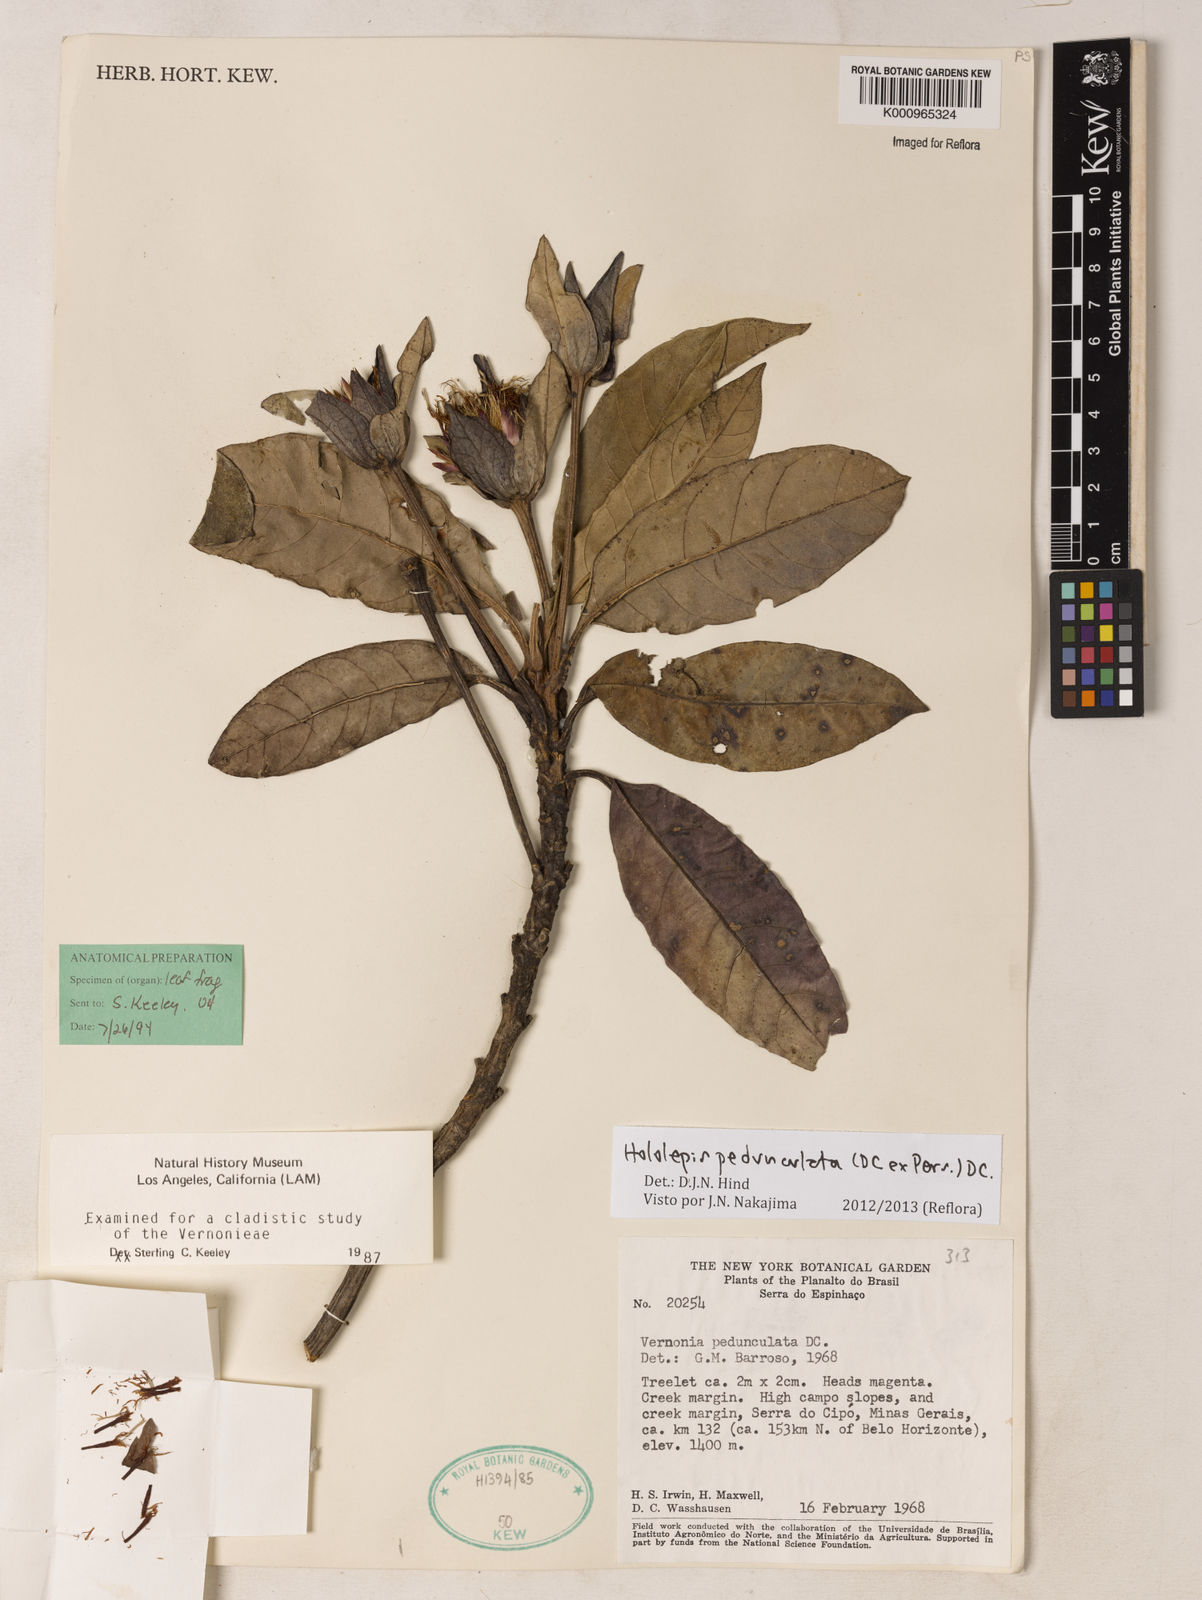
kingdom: Plantae
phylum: Tracheophyta
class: Magnoliopsida
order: Asterales
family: Asteraceae
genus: Hololepis
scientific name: Hololepis pedunculata
